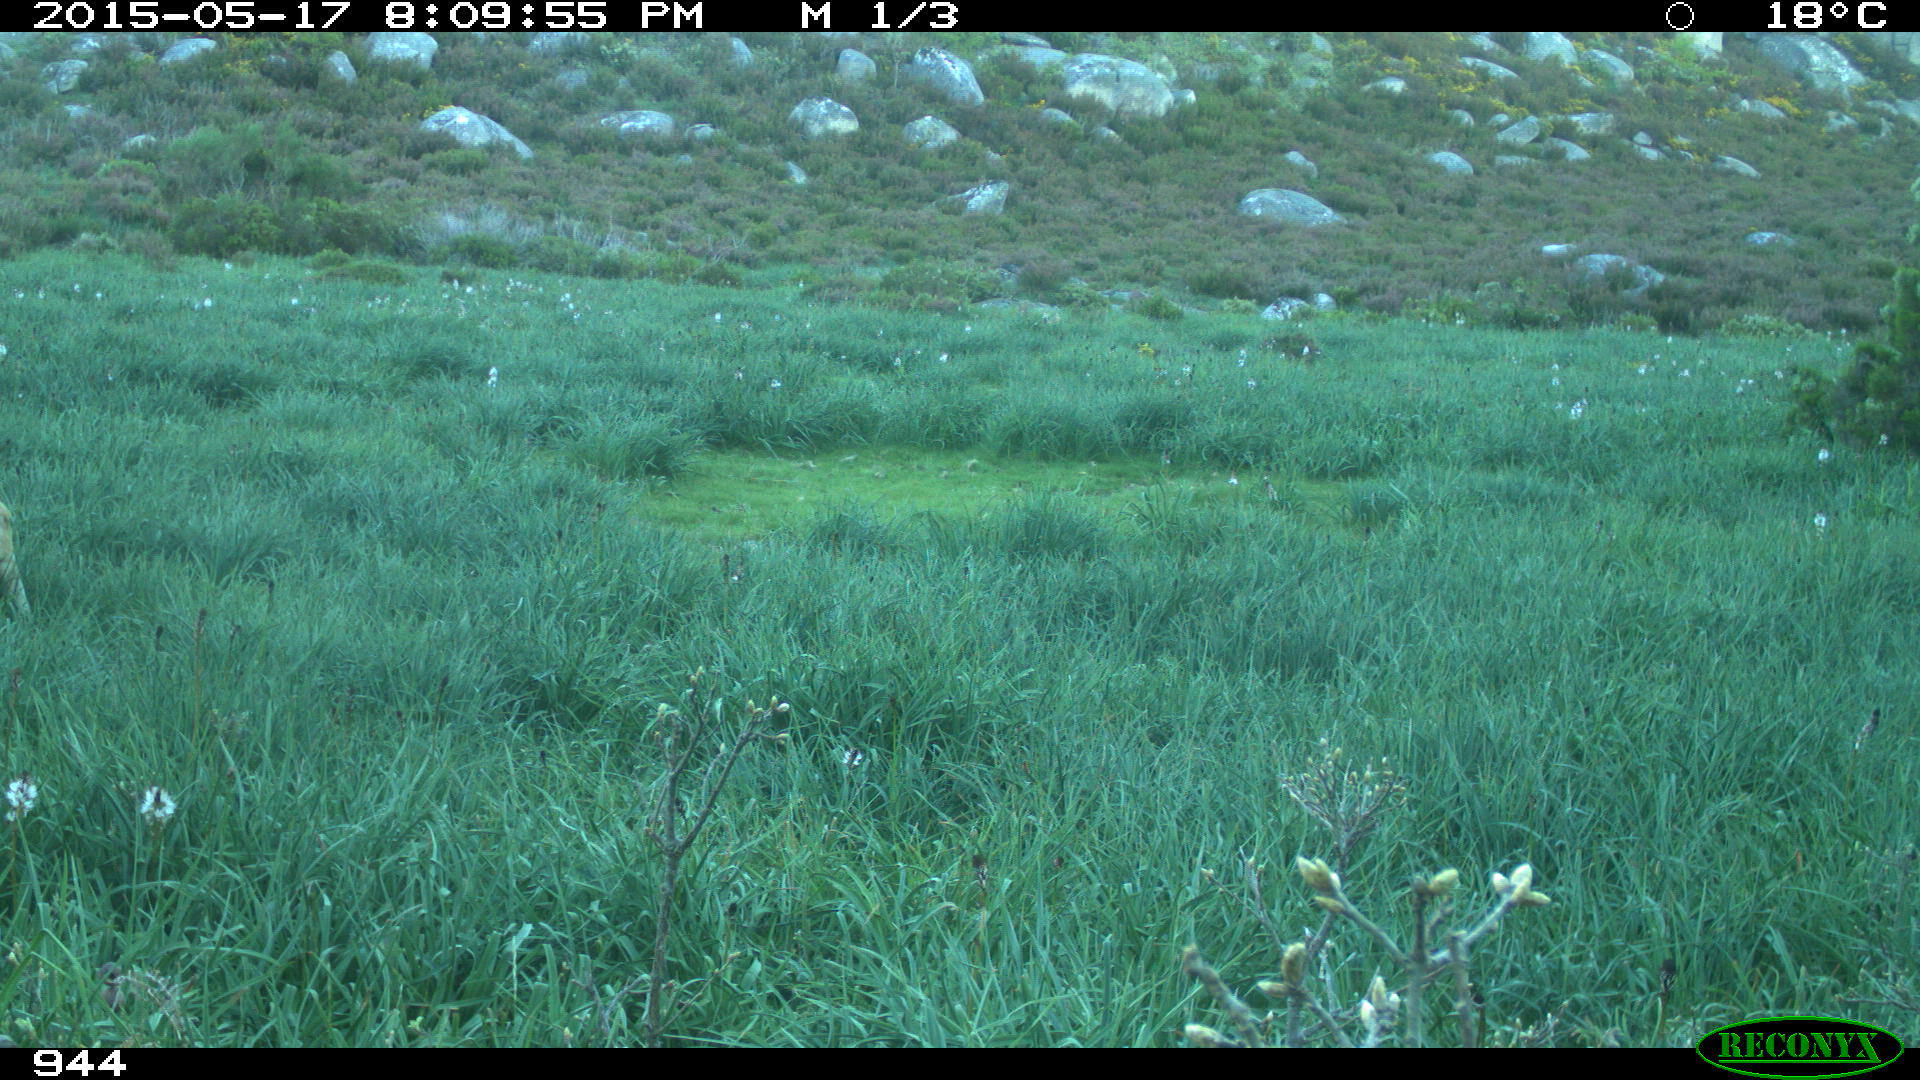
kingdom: Animalia
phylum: Chordata
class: Mammalia
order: Artiodactyla
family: Bovidae
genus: Bos
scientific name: Bos taurus
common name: Domesticated cattle
